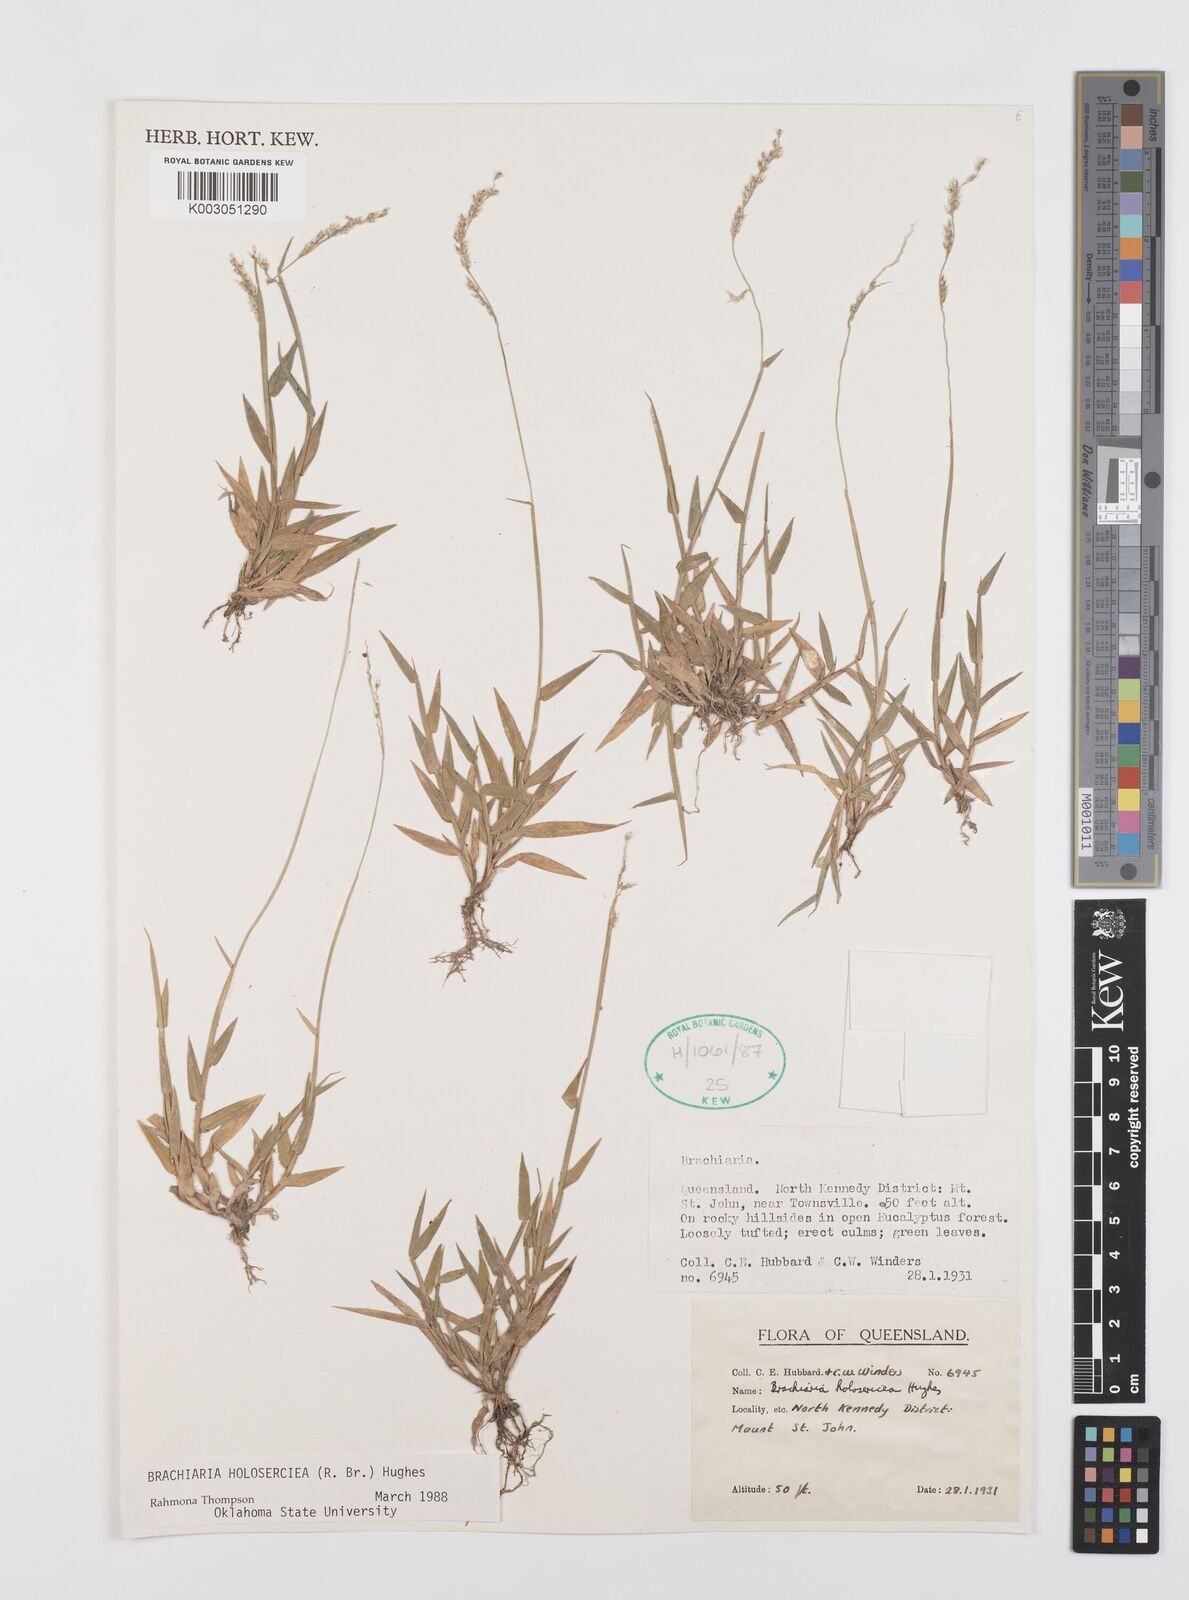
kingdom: Plantae
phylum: Tracheophyta
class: Liliopsida
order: Poales
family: Poaceae
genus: Urochloa
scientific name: Urochloa holosericea
